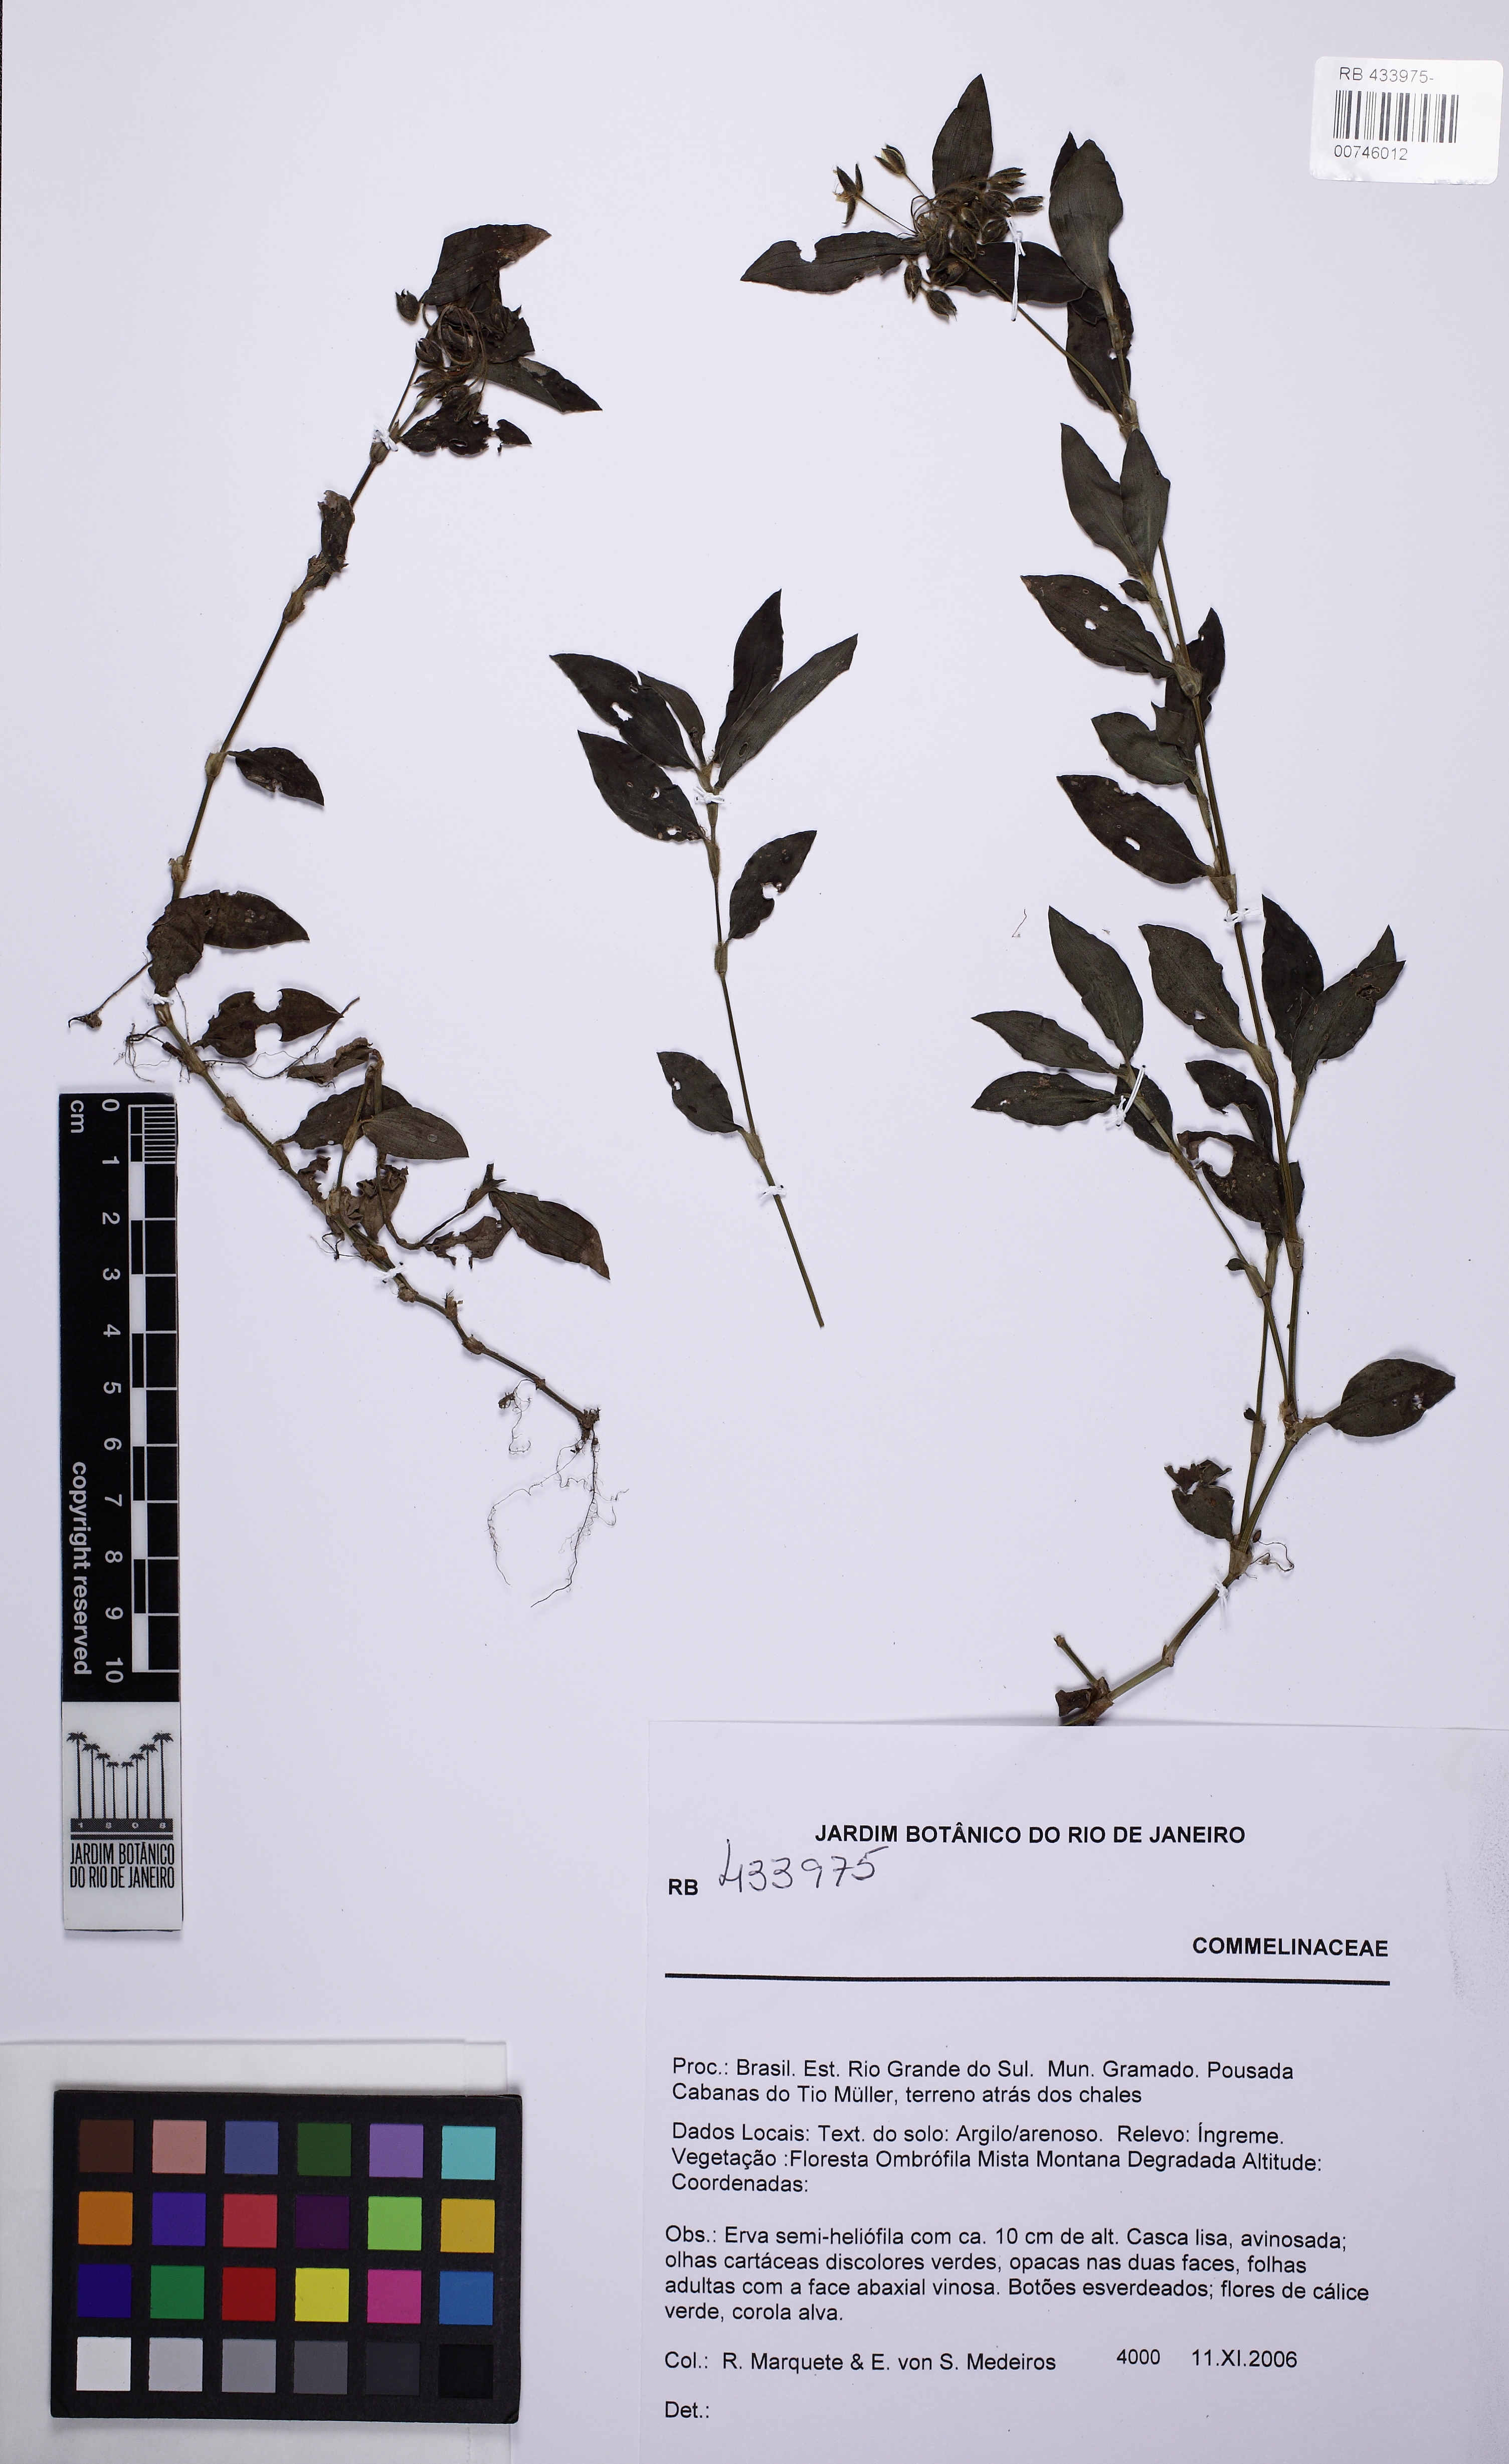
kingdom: Plantae
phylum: Tracheophyta
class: Liliopsida
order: Commelinales
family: Commelinaceae
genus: Tradescantia
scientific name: Tradescantia cymbispatha
